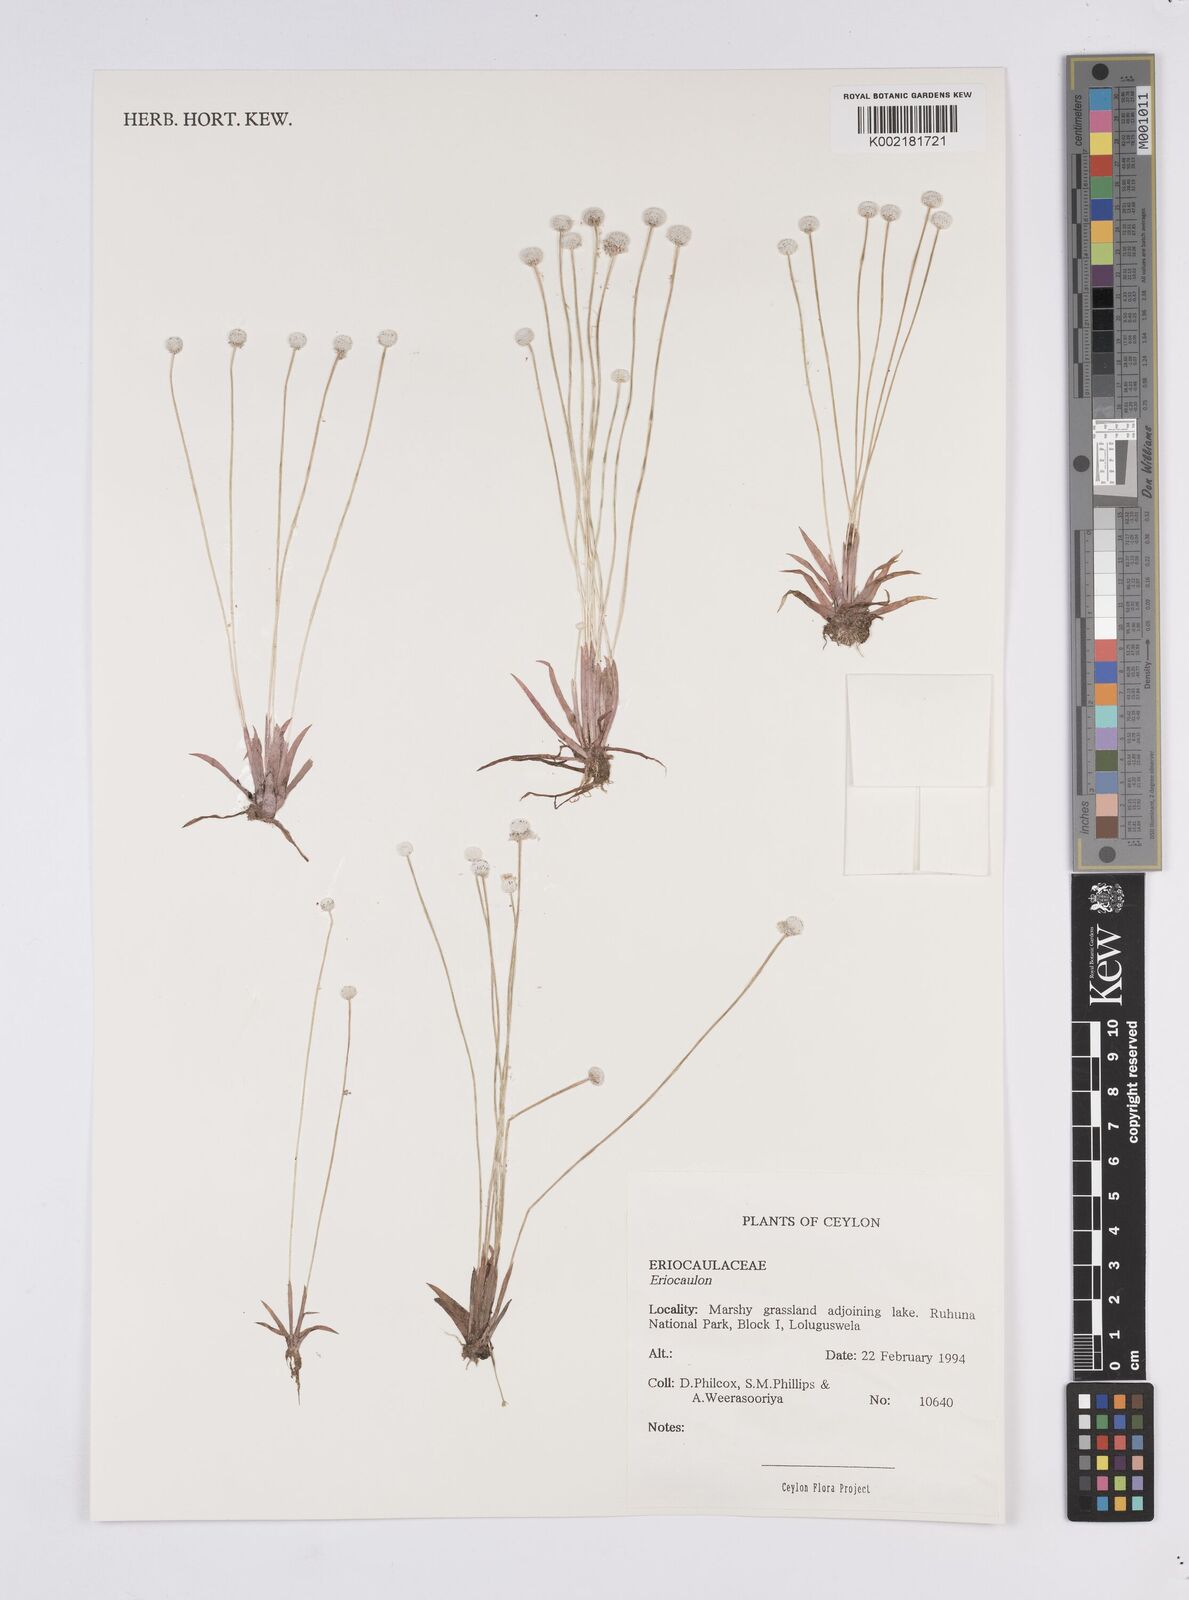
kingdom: Plantae
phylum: Tracheophyta
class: Liliopsida
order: Poales
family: Eriocaulaceae
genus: Eriocaulon
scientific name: Eriocaulon quinquangulare
